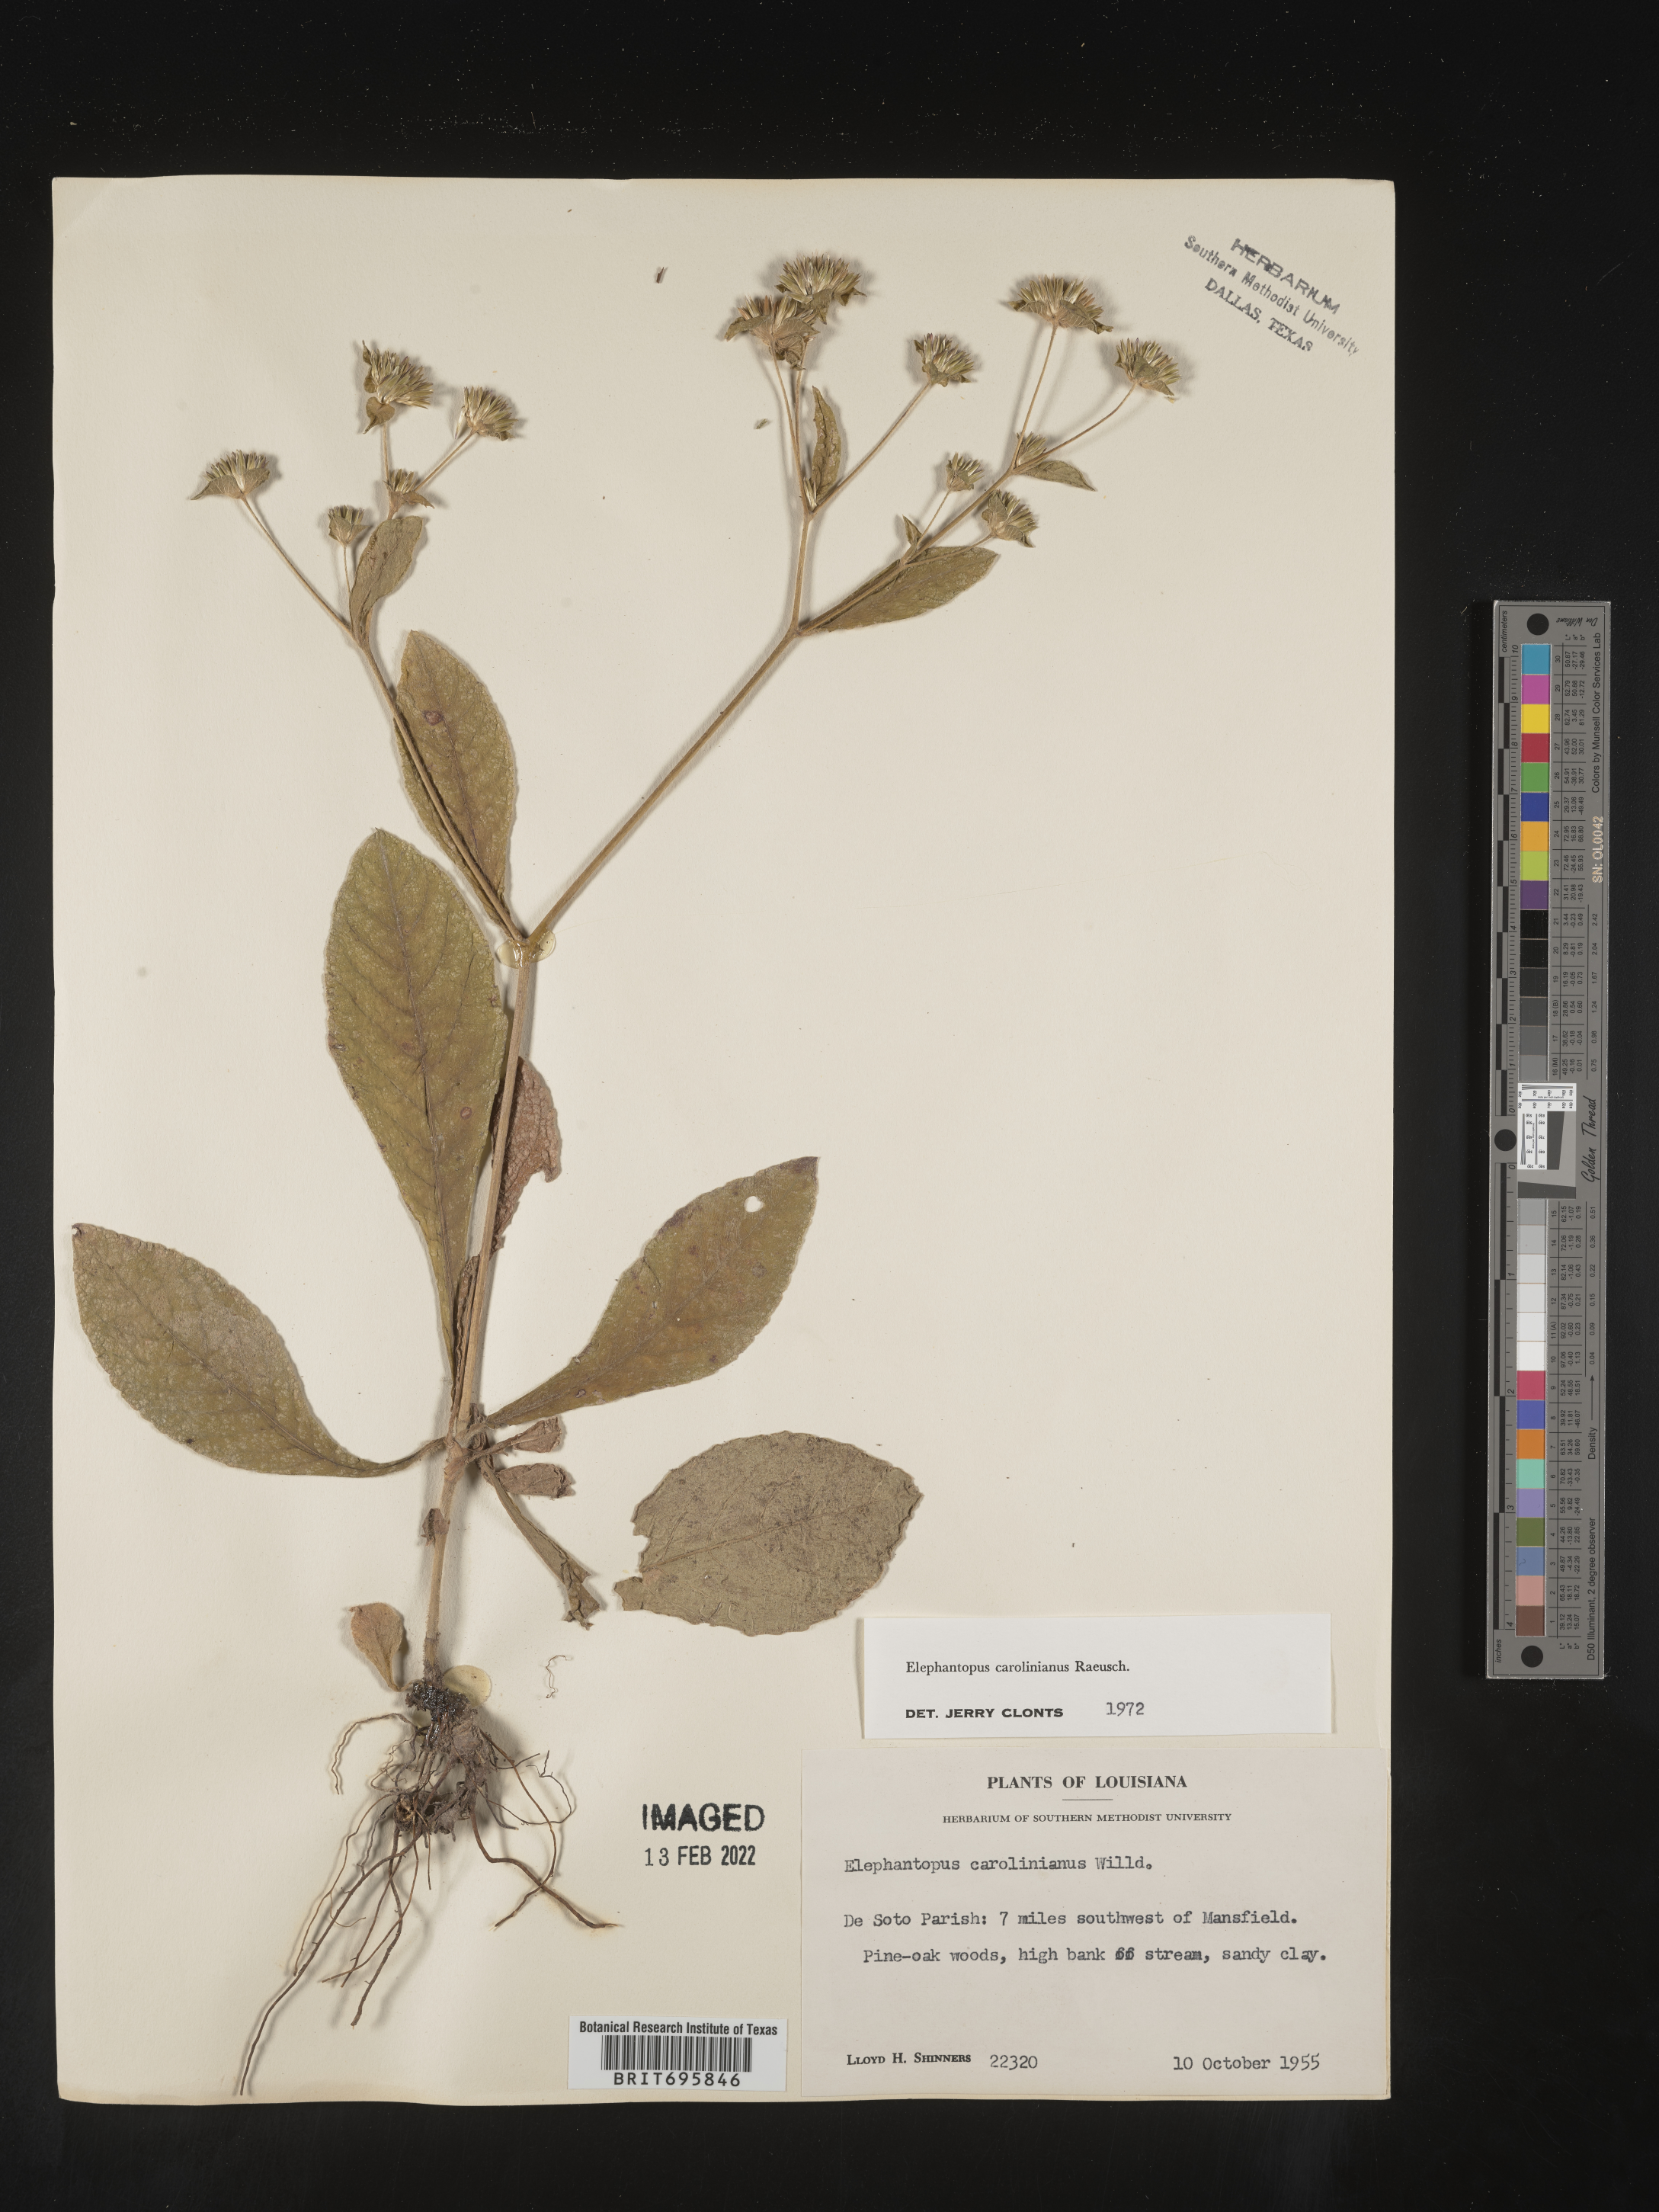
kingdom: Plantae
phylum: Tracheophyta
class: Magnoliopsida
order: Asterales
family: Asteraceae
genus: Elephantopus
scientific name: Elephantopus carolinianus
